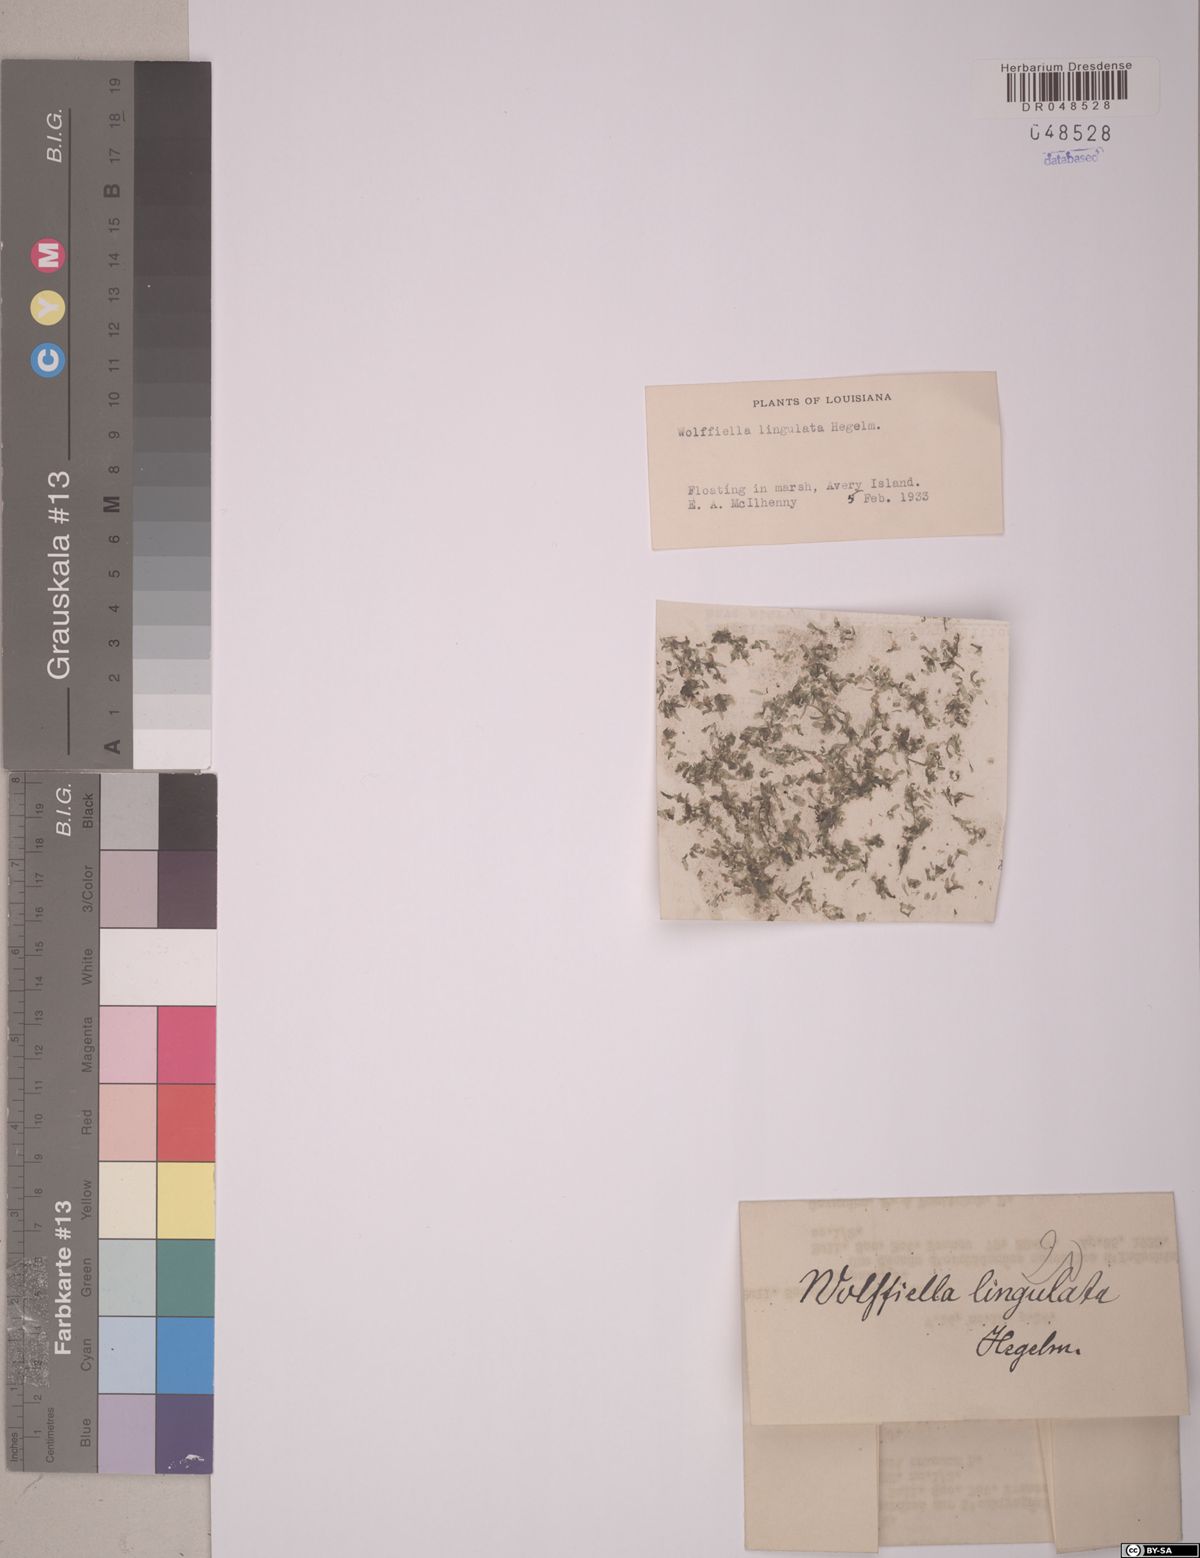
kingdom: Plantae
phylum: Tracheophyta
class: Liliopsida
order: Alismatales
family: Araceae
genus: Wolffiella
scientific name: Wolffiella lingulata
